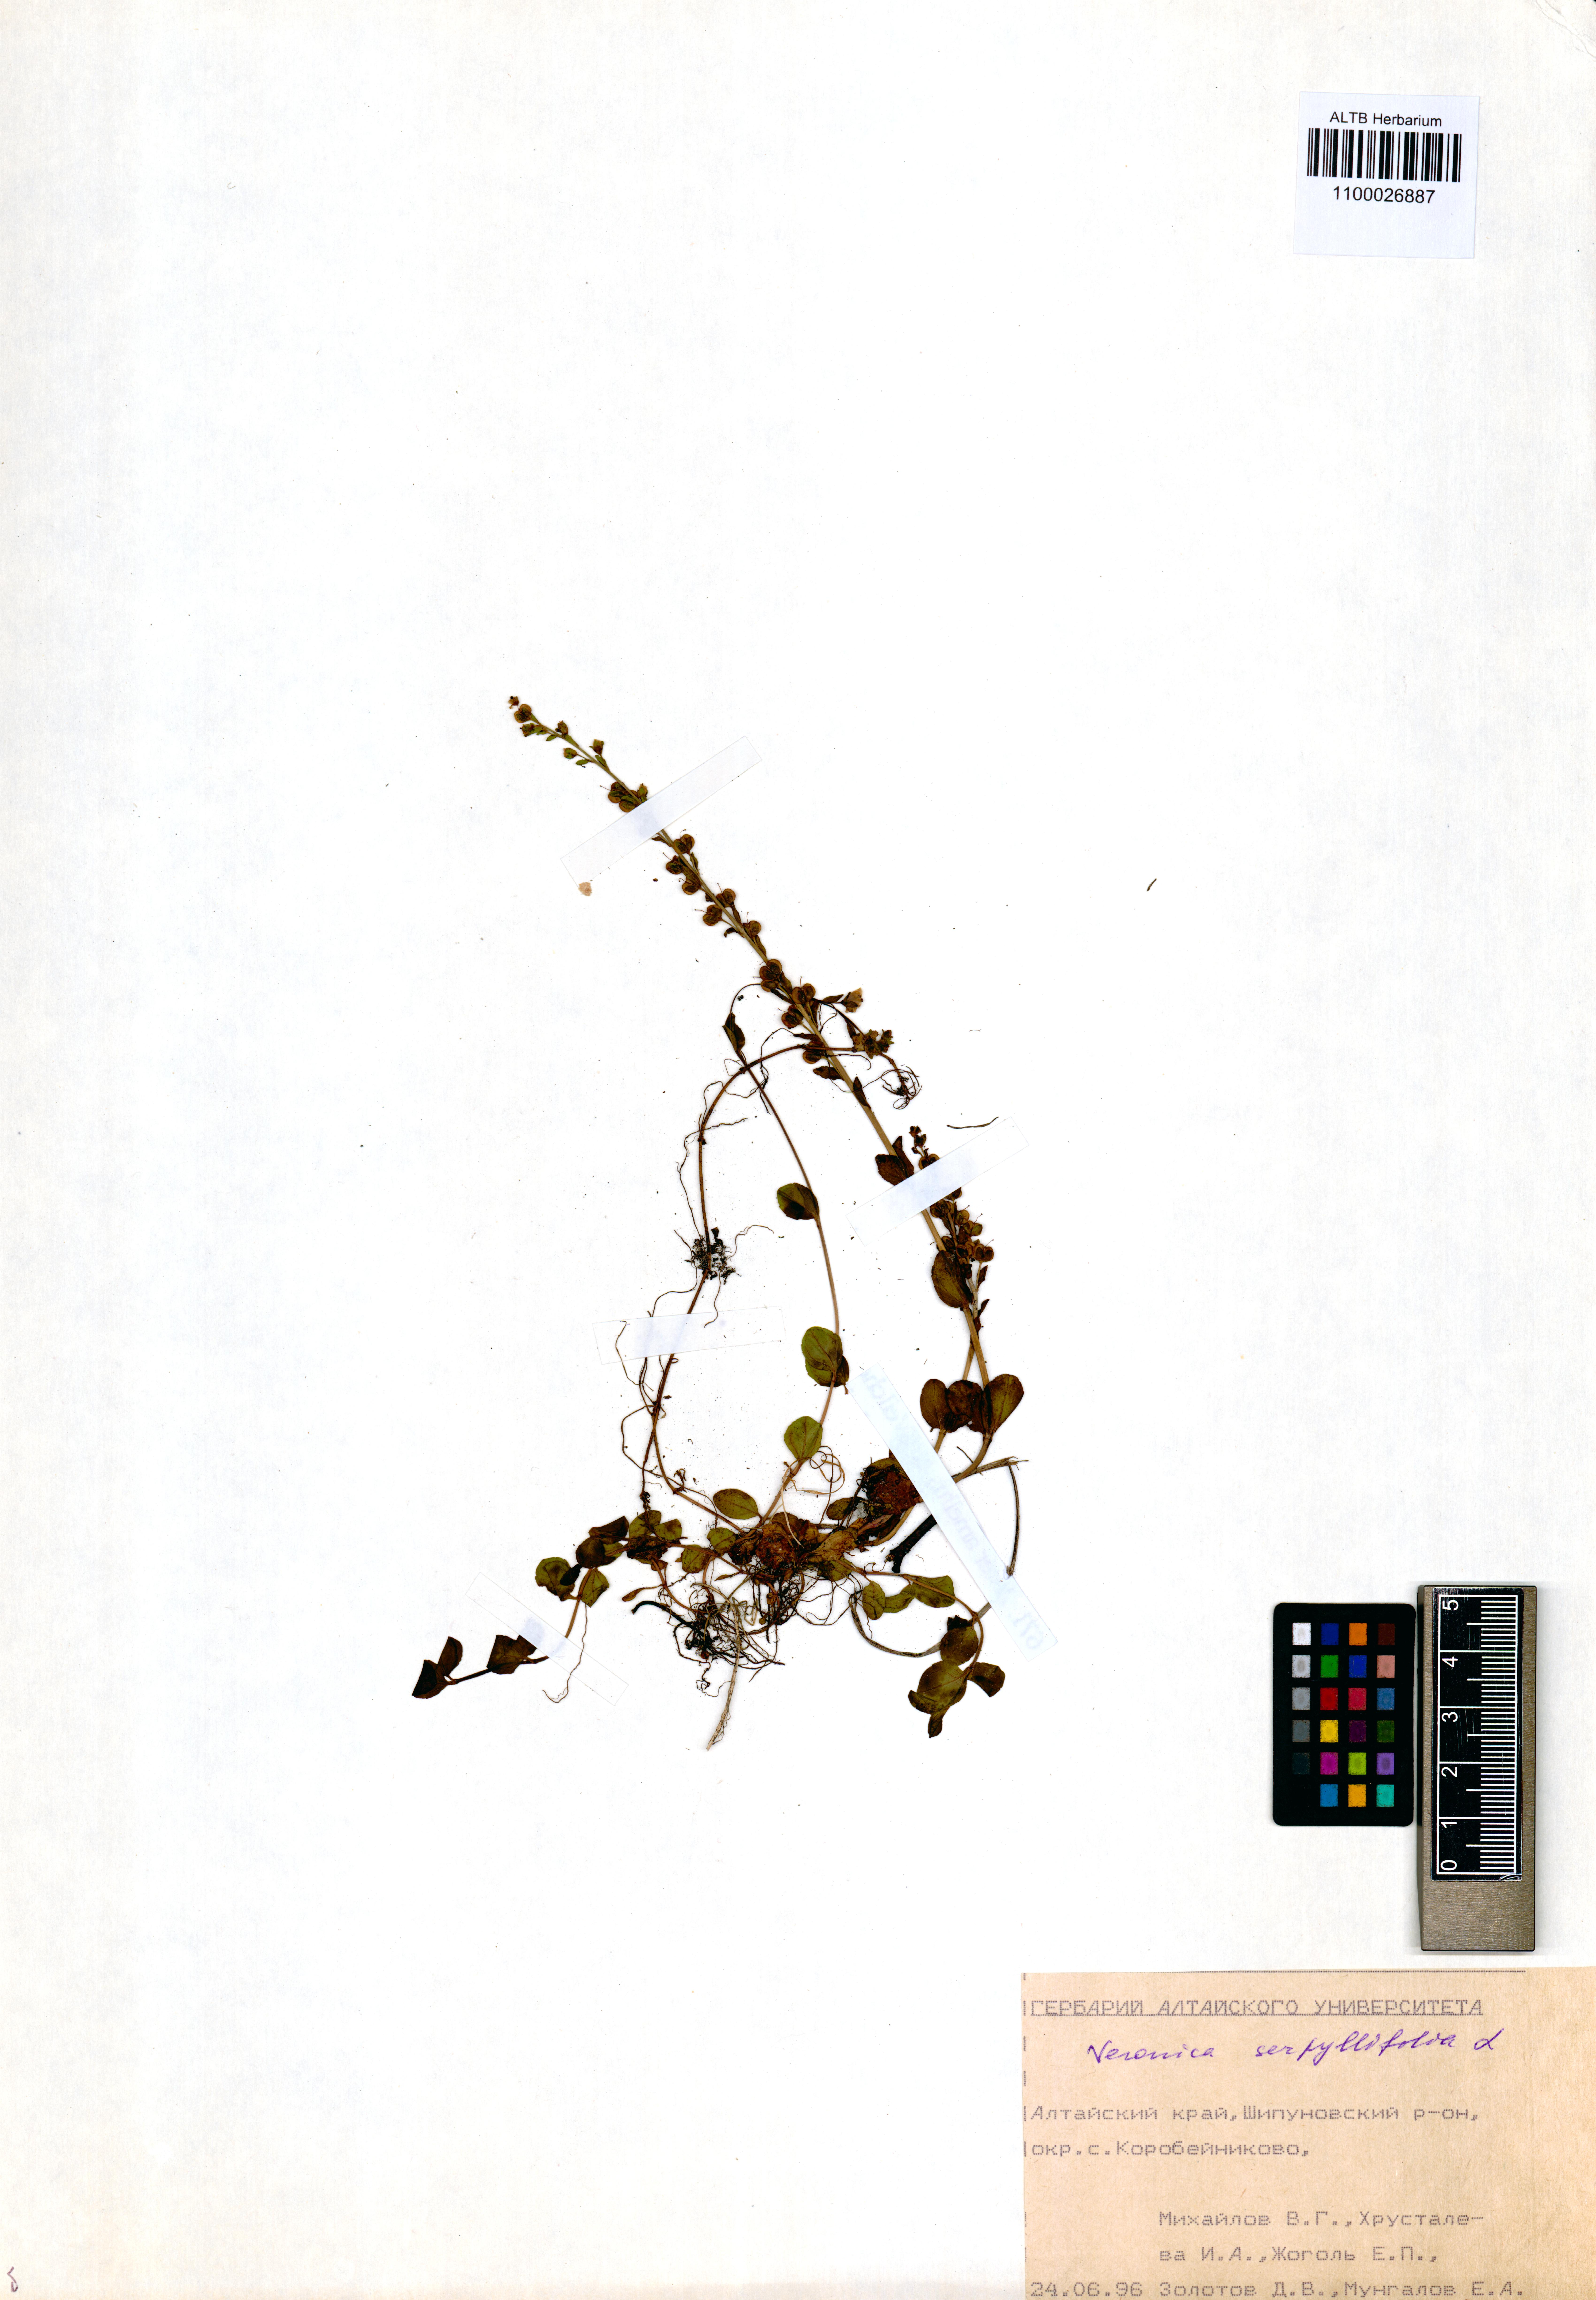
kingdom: Plantae
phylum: Tracheophyta
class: Magnoliopsida
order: Lamiales
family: Plantaginaceae
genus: Veronica
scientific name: Veronica serpyllifolia
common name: Thyme-leaved speedwell
